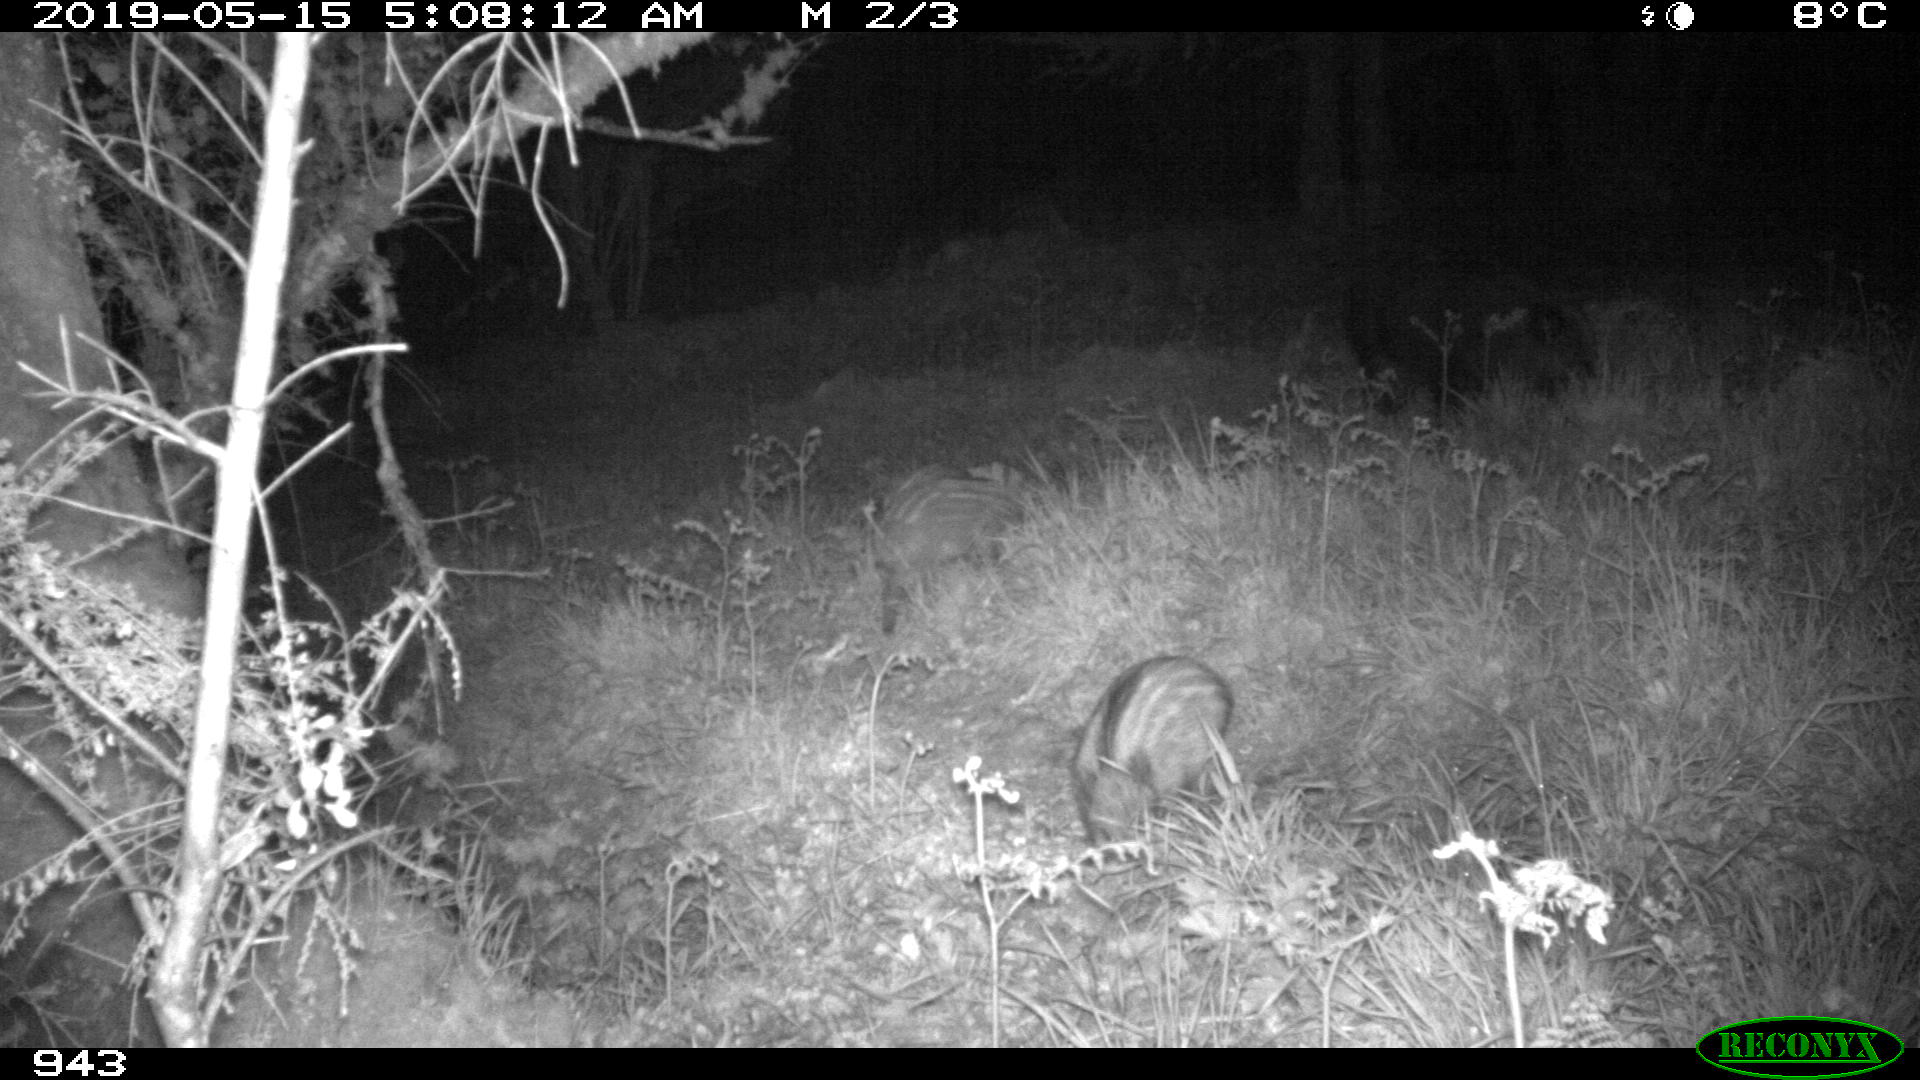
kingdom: Animalia
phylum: Chordata
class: Mammalia
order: Artiodactyla
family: Suidae
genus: Sus
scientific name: Sus scrofa
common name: Wild boar
